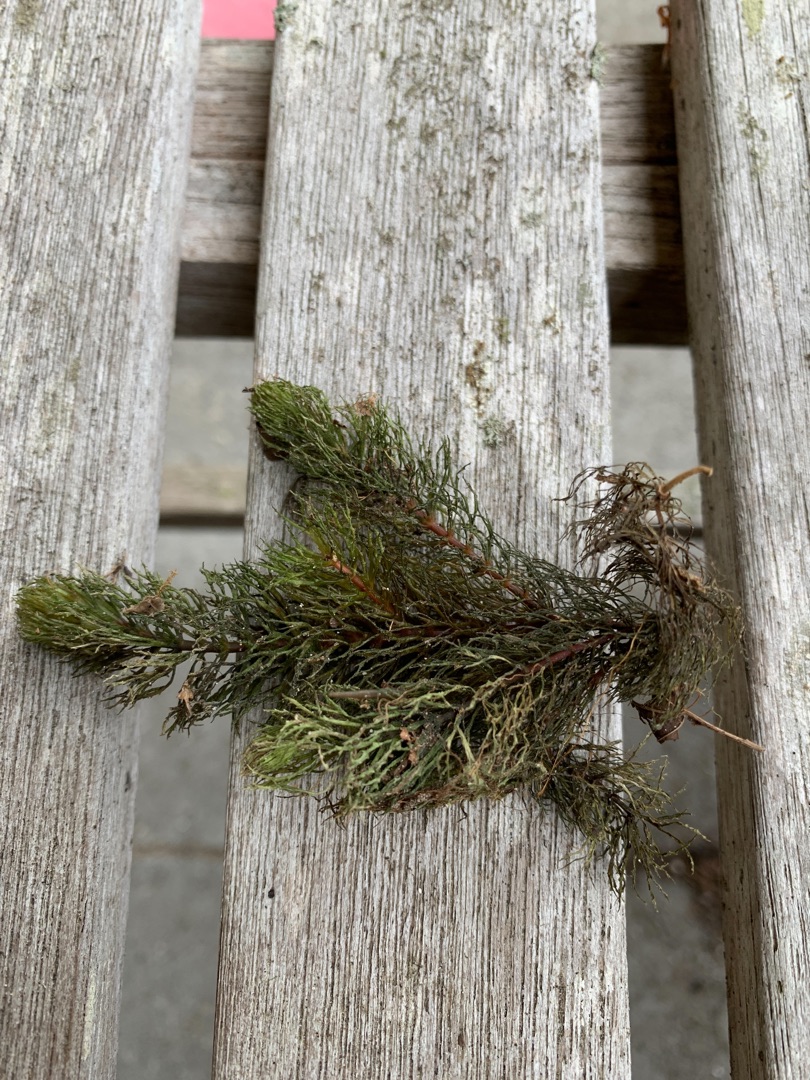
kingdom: Plantae
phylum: Tracheophyta
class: Magnoliopsida
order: Ceratophyllales
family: Ceratophyllaceae
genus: Ceratophyllum
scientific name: Ceratophyllum demersum
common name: Tornfrøet hornblad
